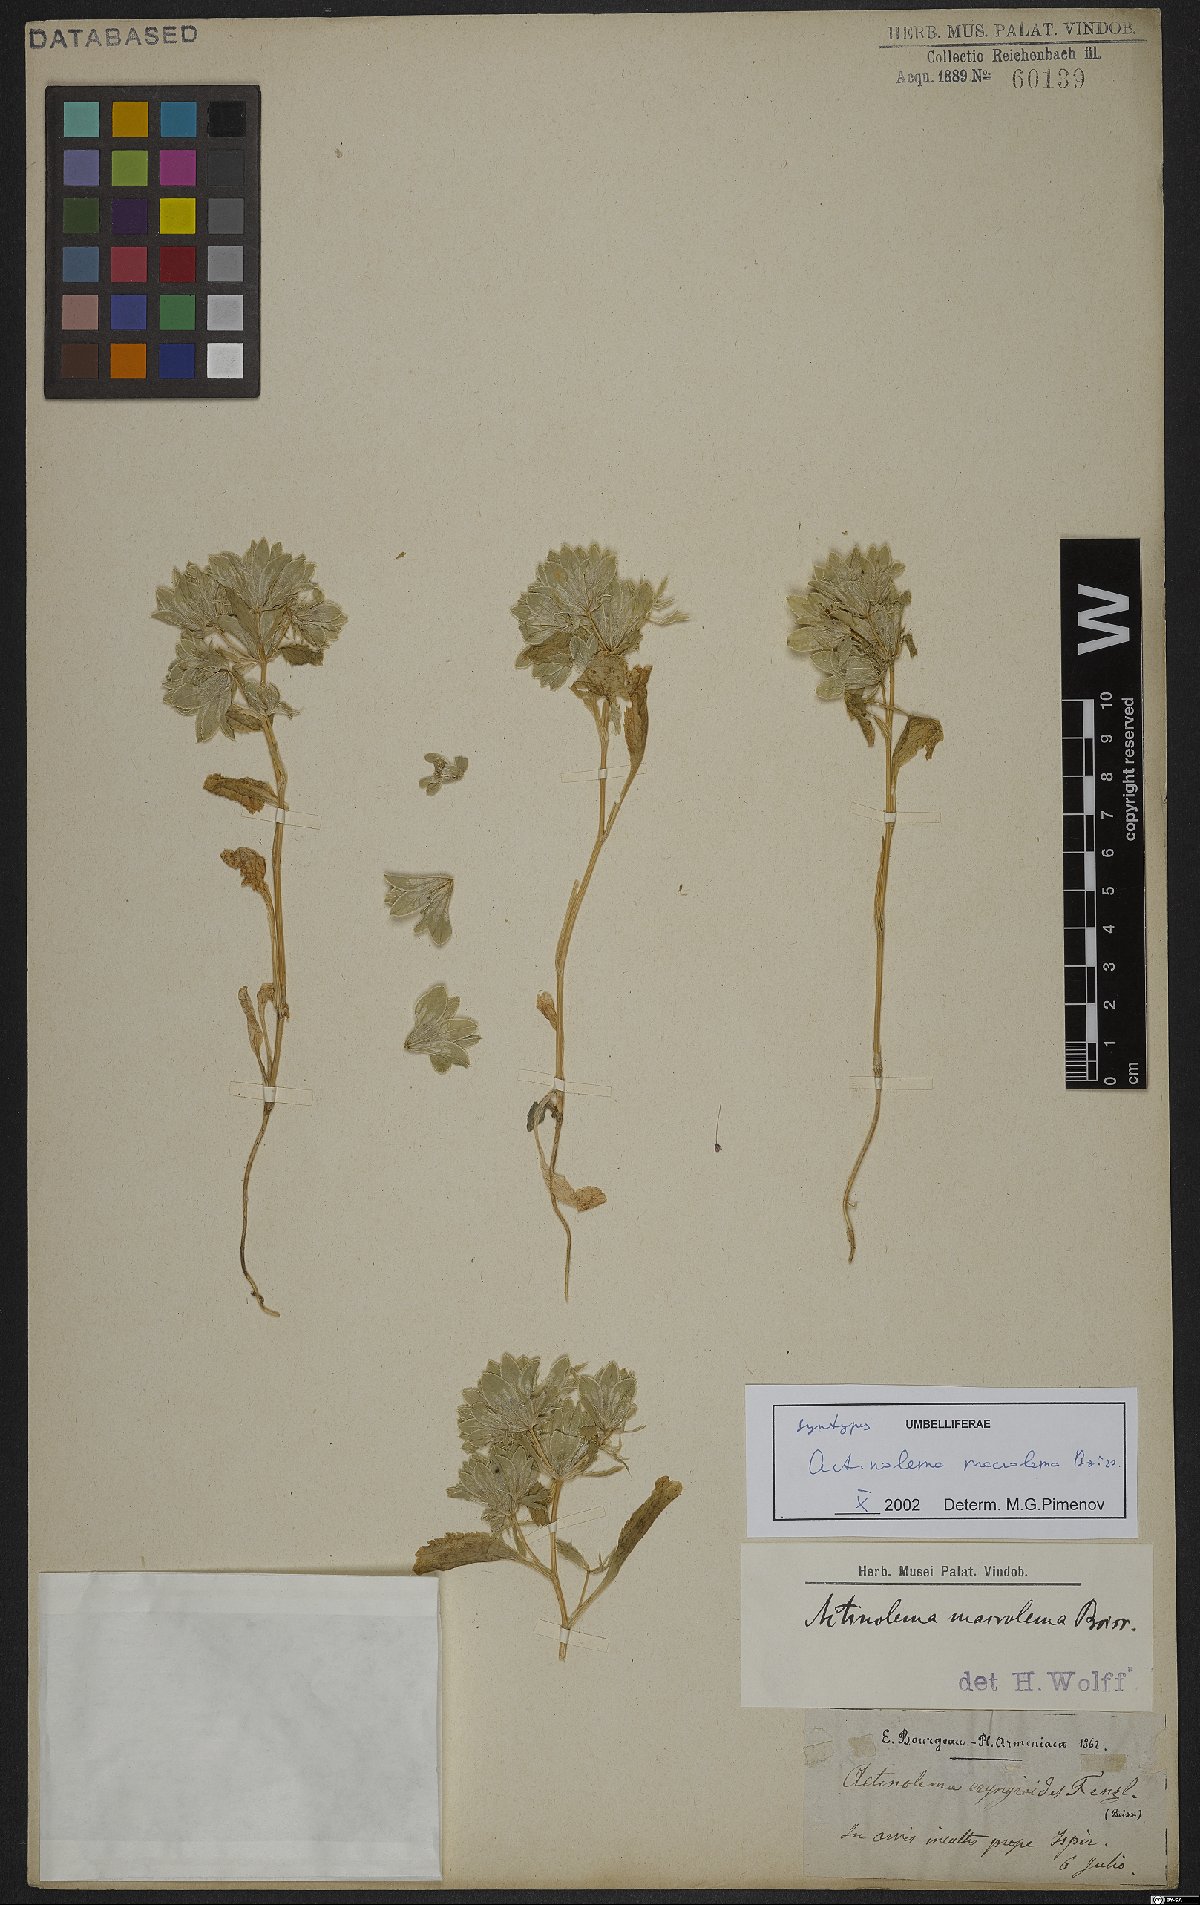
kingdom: Plantae
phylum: Tracheophyta
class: Magnoliopsida
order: Apiales
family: Apiaceae
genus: Actinolema
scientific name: Actinolema macrolema
